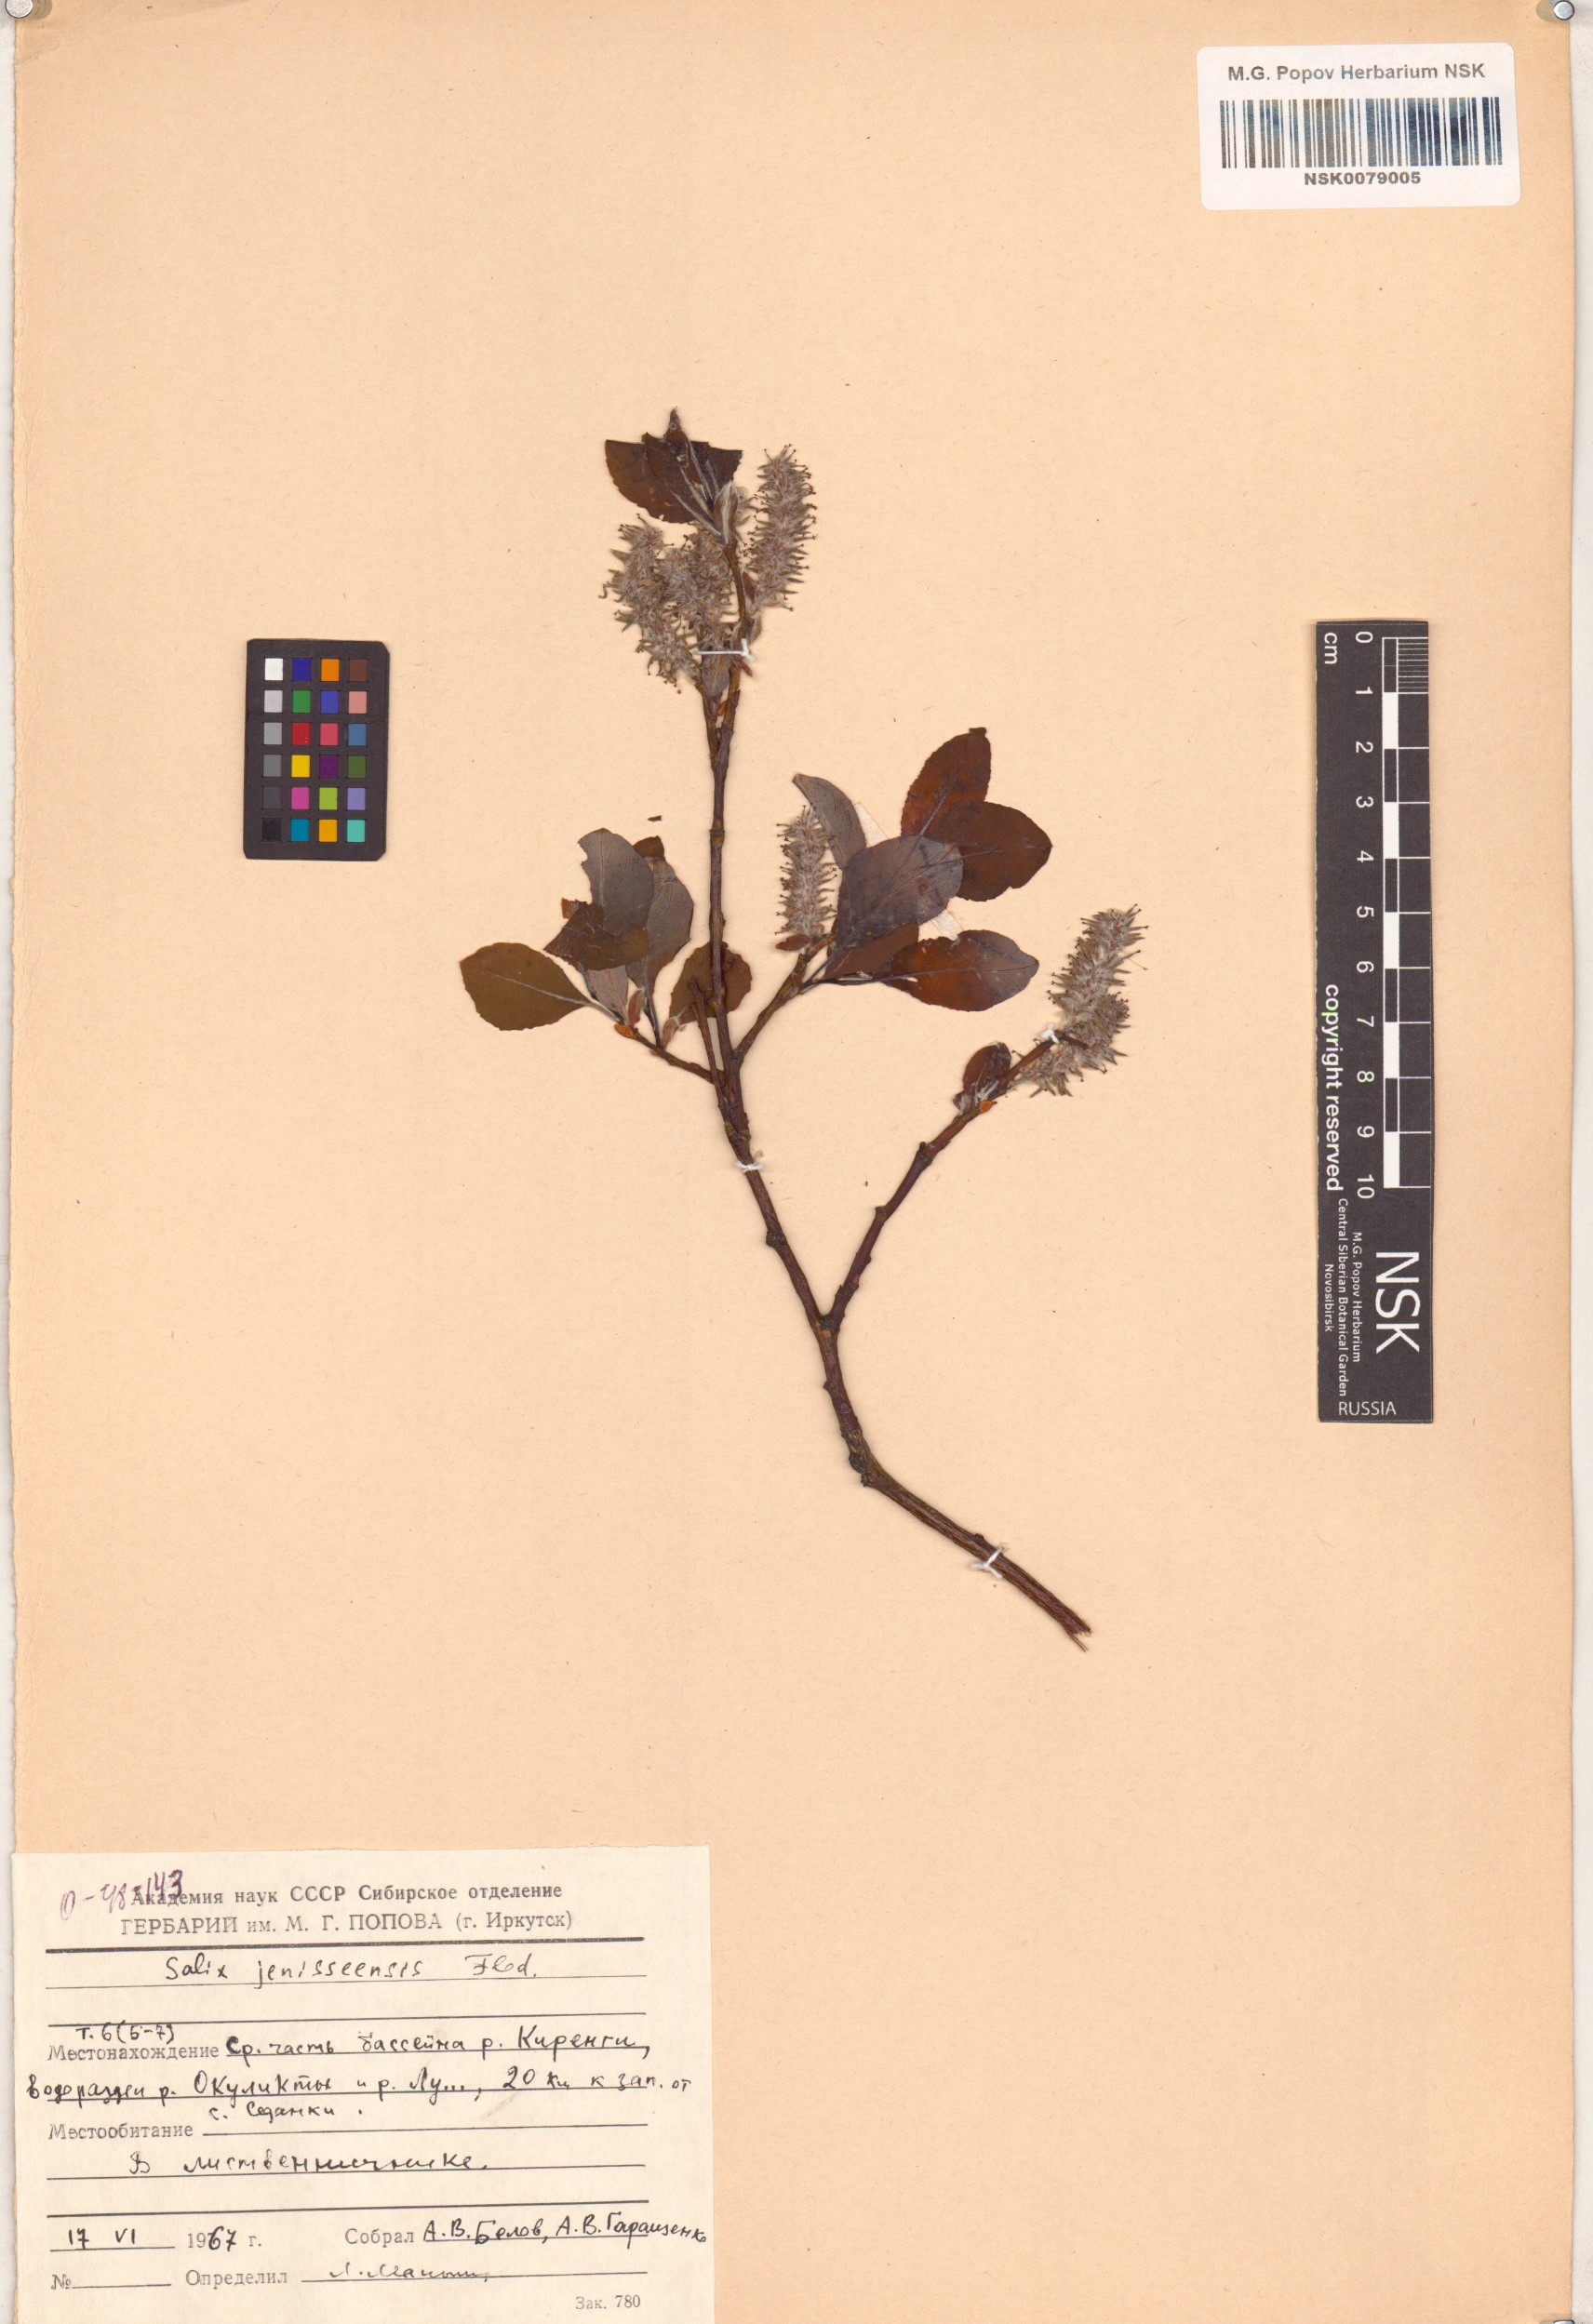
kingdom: Plantae
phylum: Tracheophyta
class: Magnoliopsida
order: Malpighiales
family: Salicaceae
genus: Salix
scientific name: Salix jenisseensis
